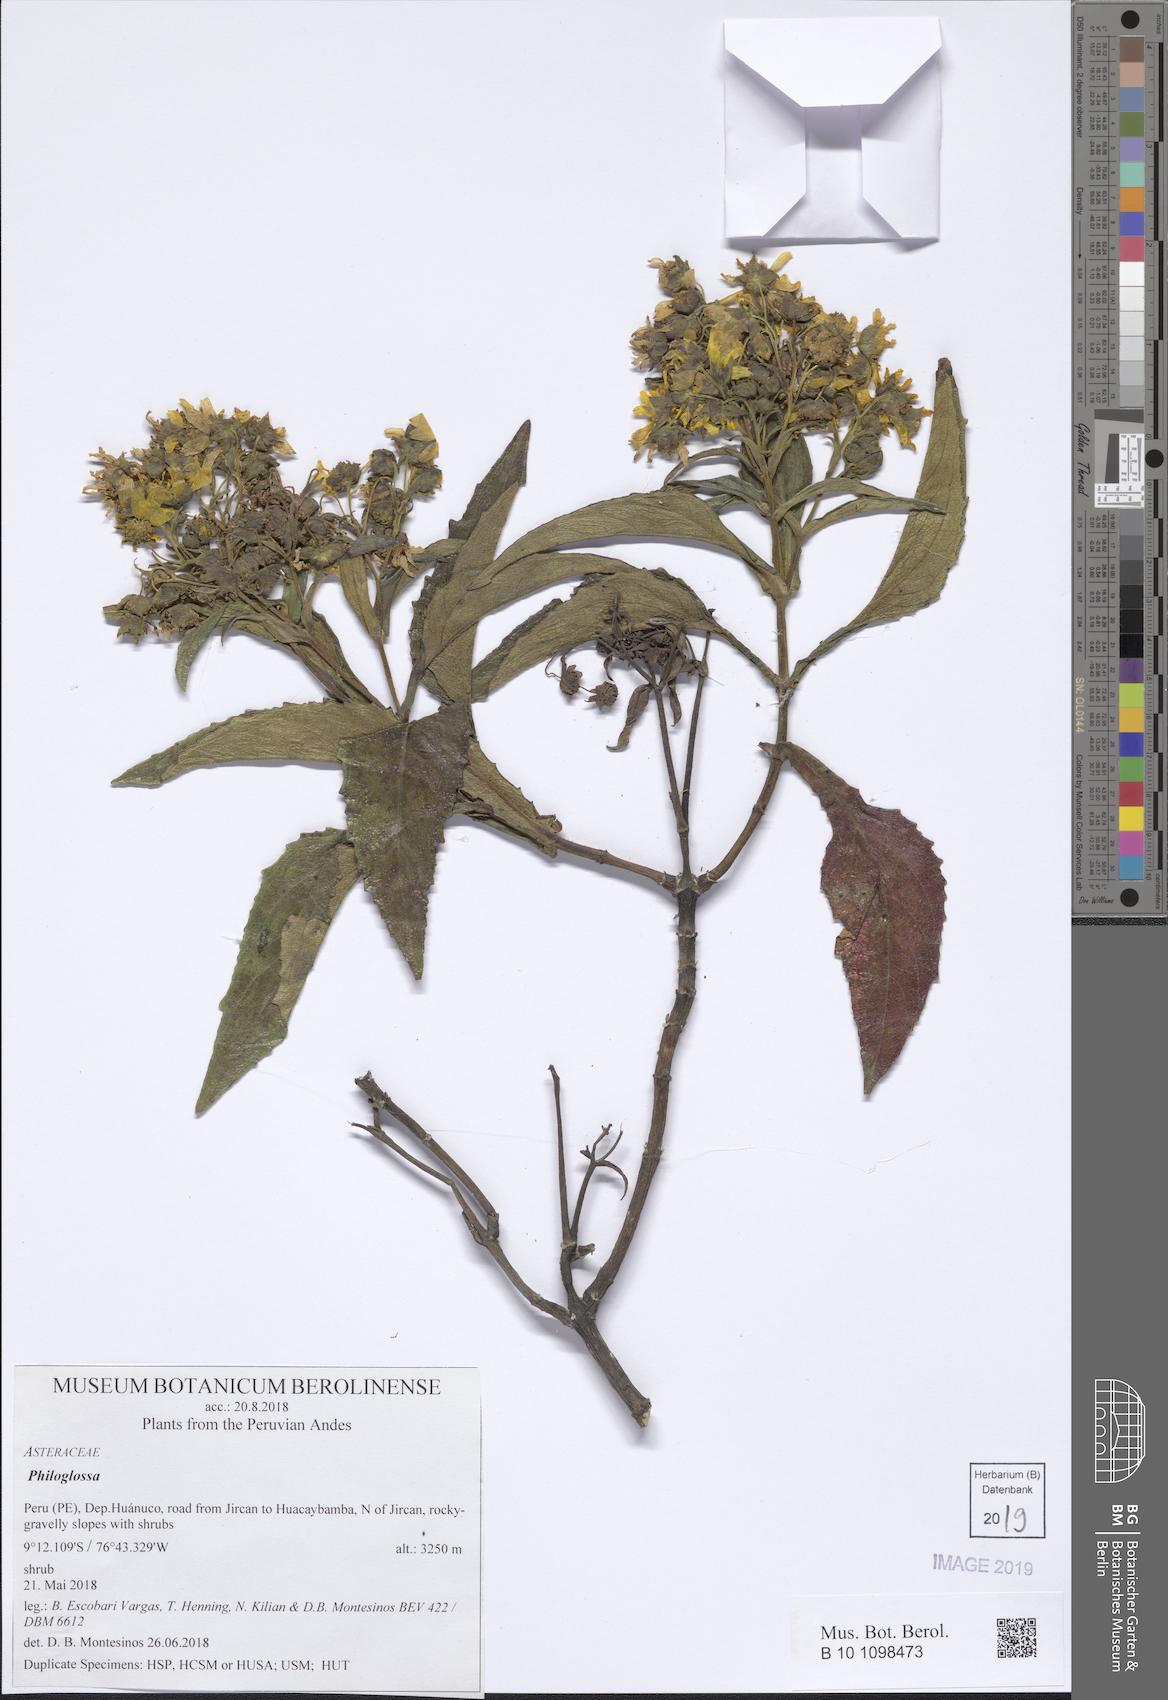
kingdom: Plantae
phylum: Tracheophyta
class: Magnoliopsida
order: Asterales
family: Asteraceae
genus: Philoglossa
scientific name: Philoglossa
